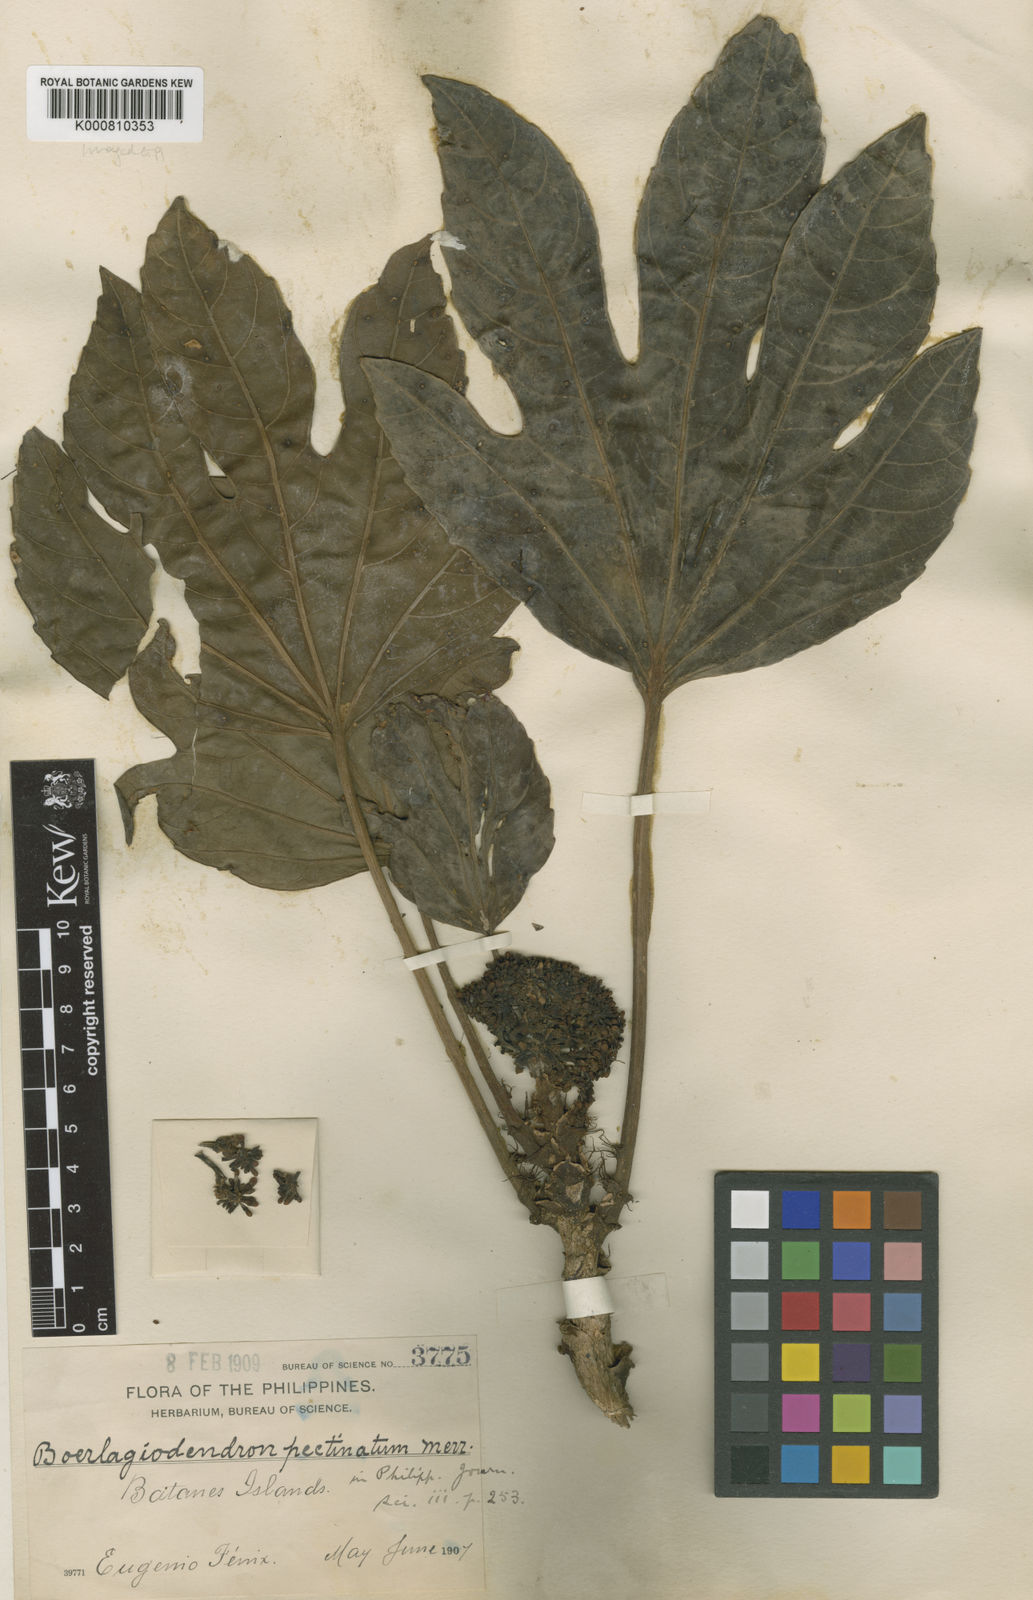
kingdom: Plantae
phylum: Tracheophyta
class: Magnoliopsida
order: Apiales
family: Araliaceae
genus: Osmoxylon
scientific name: Osmoxylon pectinatum
